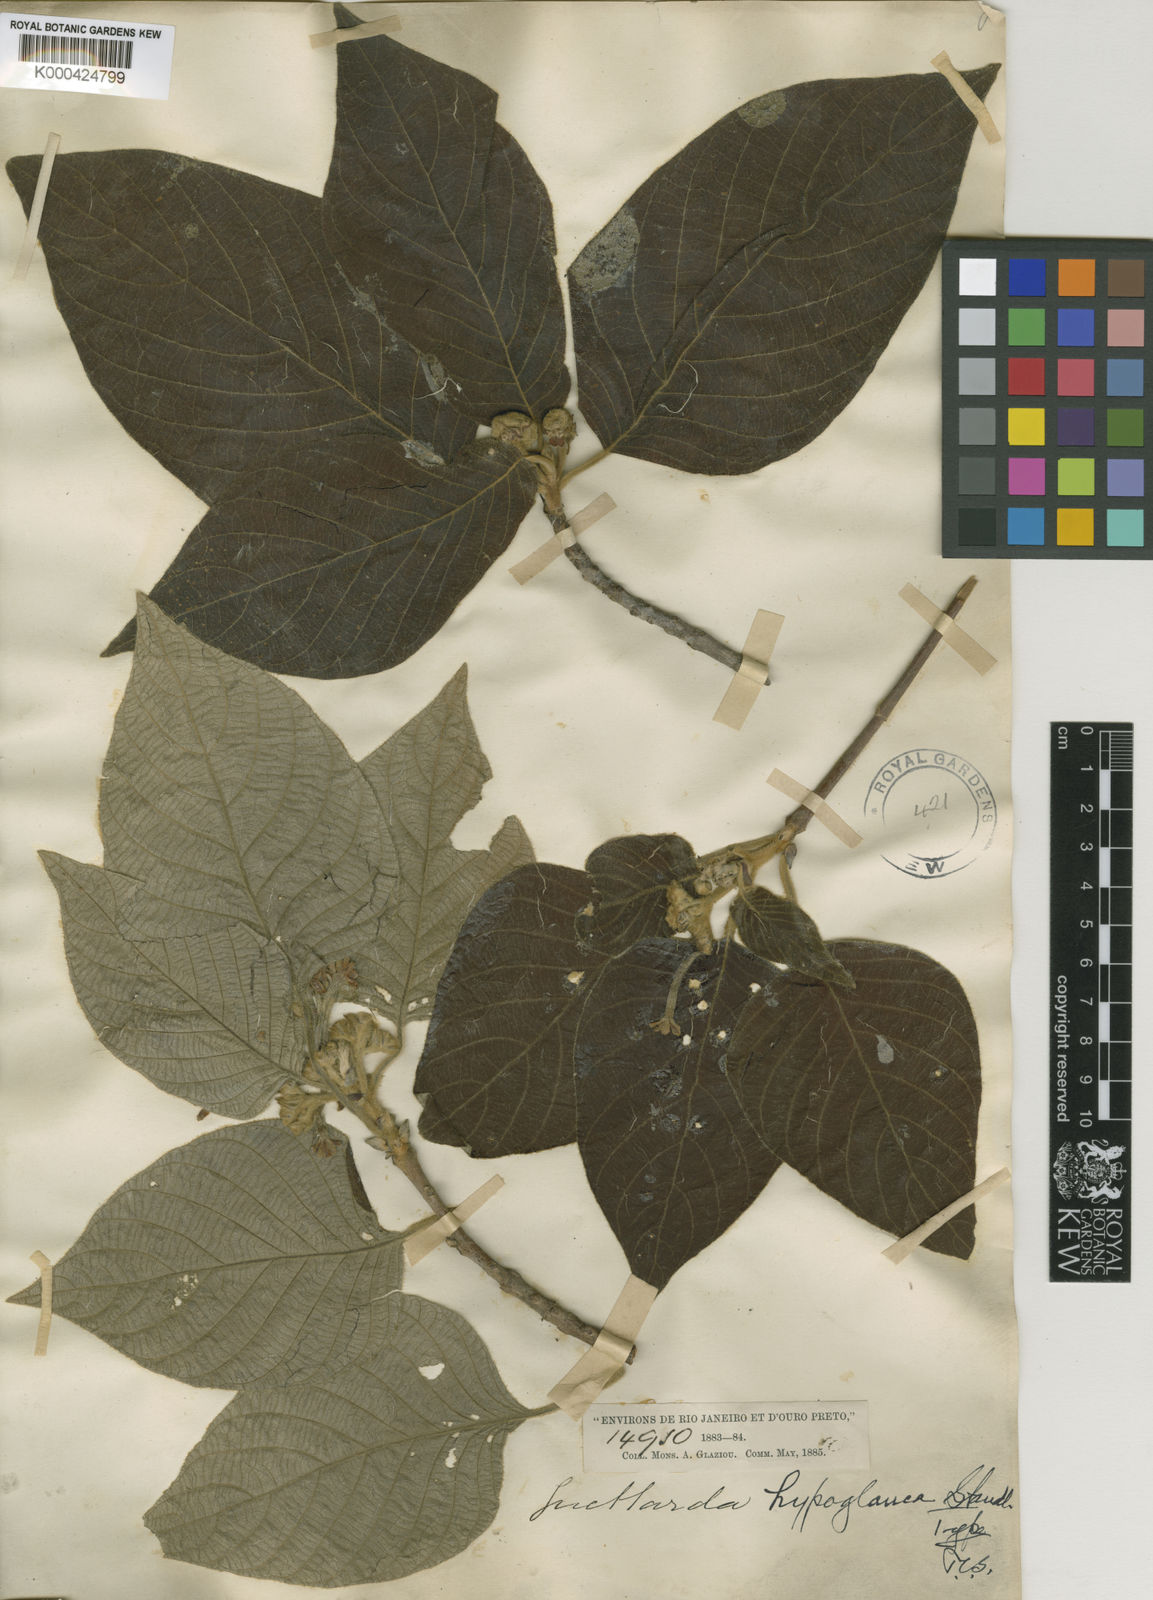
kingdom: Plantae
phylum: Tracheophyta
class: Magnoliopsida
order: Gentianales
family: Rubiaceae
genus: Guettarda
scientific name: Guettarda hypoglauca
